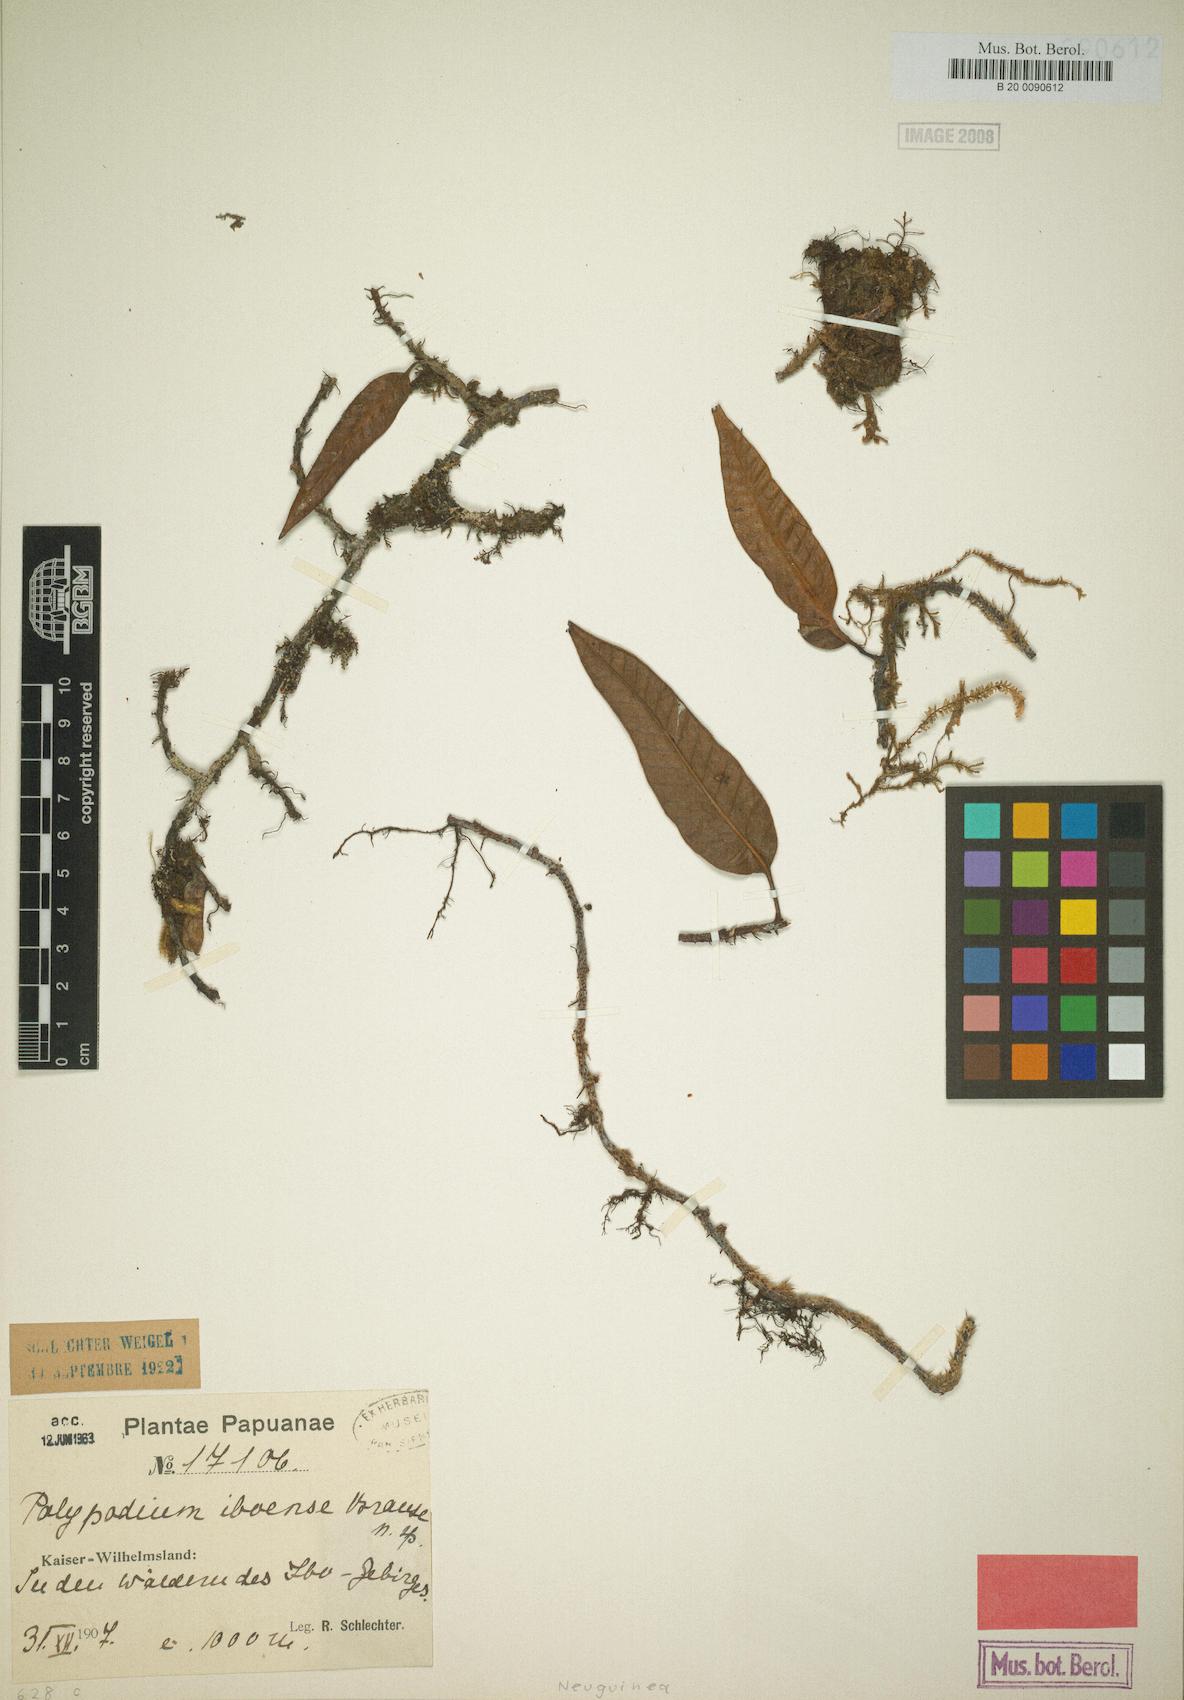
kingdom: Plantae
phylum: Tracheophyta
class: Polypodiopsida
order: Polypodiales
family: Polypodiaceae
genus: Selliguea
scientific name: Selliguea costulata
